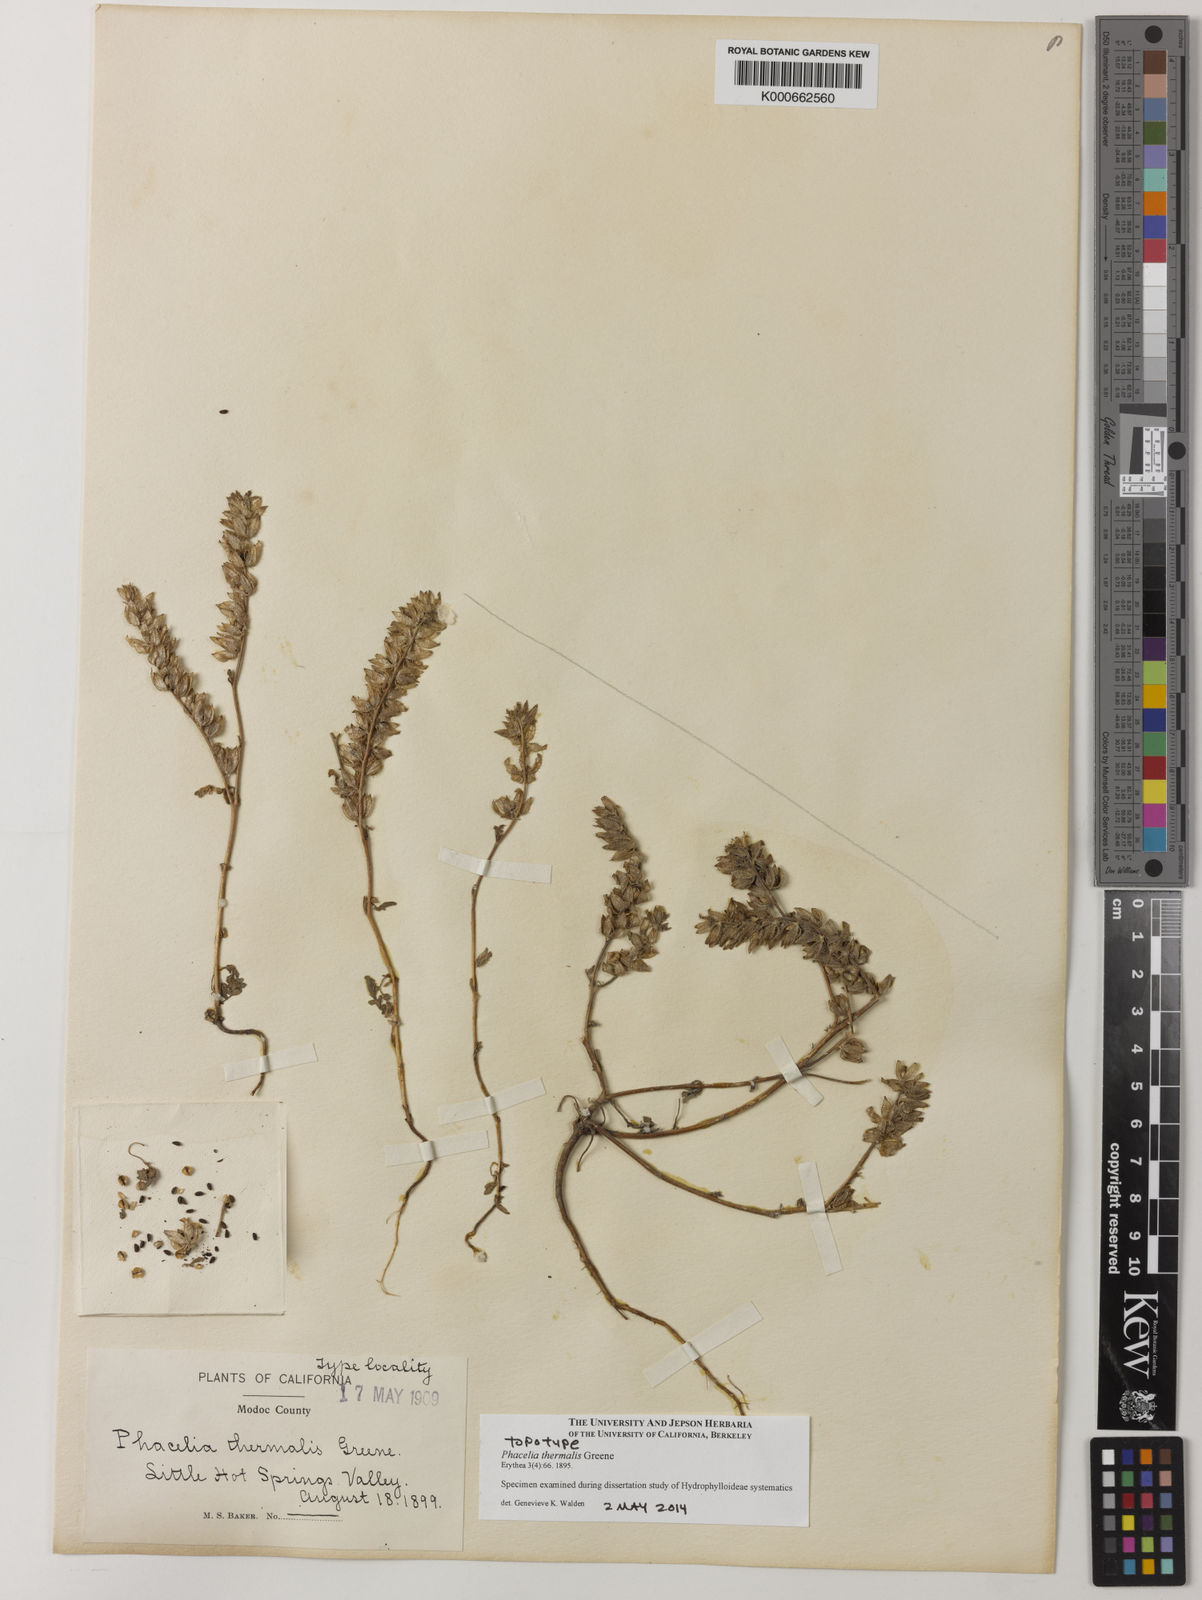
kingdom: Plantae
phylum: Tracheophyta
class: Magnoliopsida
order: Boraginales
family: Hydrophyllaceae
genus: Phacelia
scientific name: Phacelia thermalis
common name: Heated phacelia
